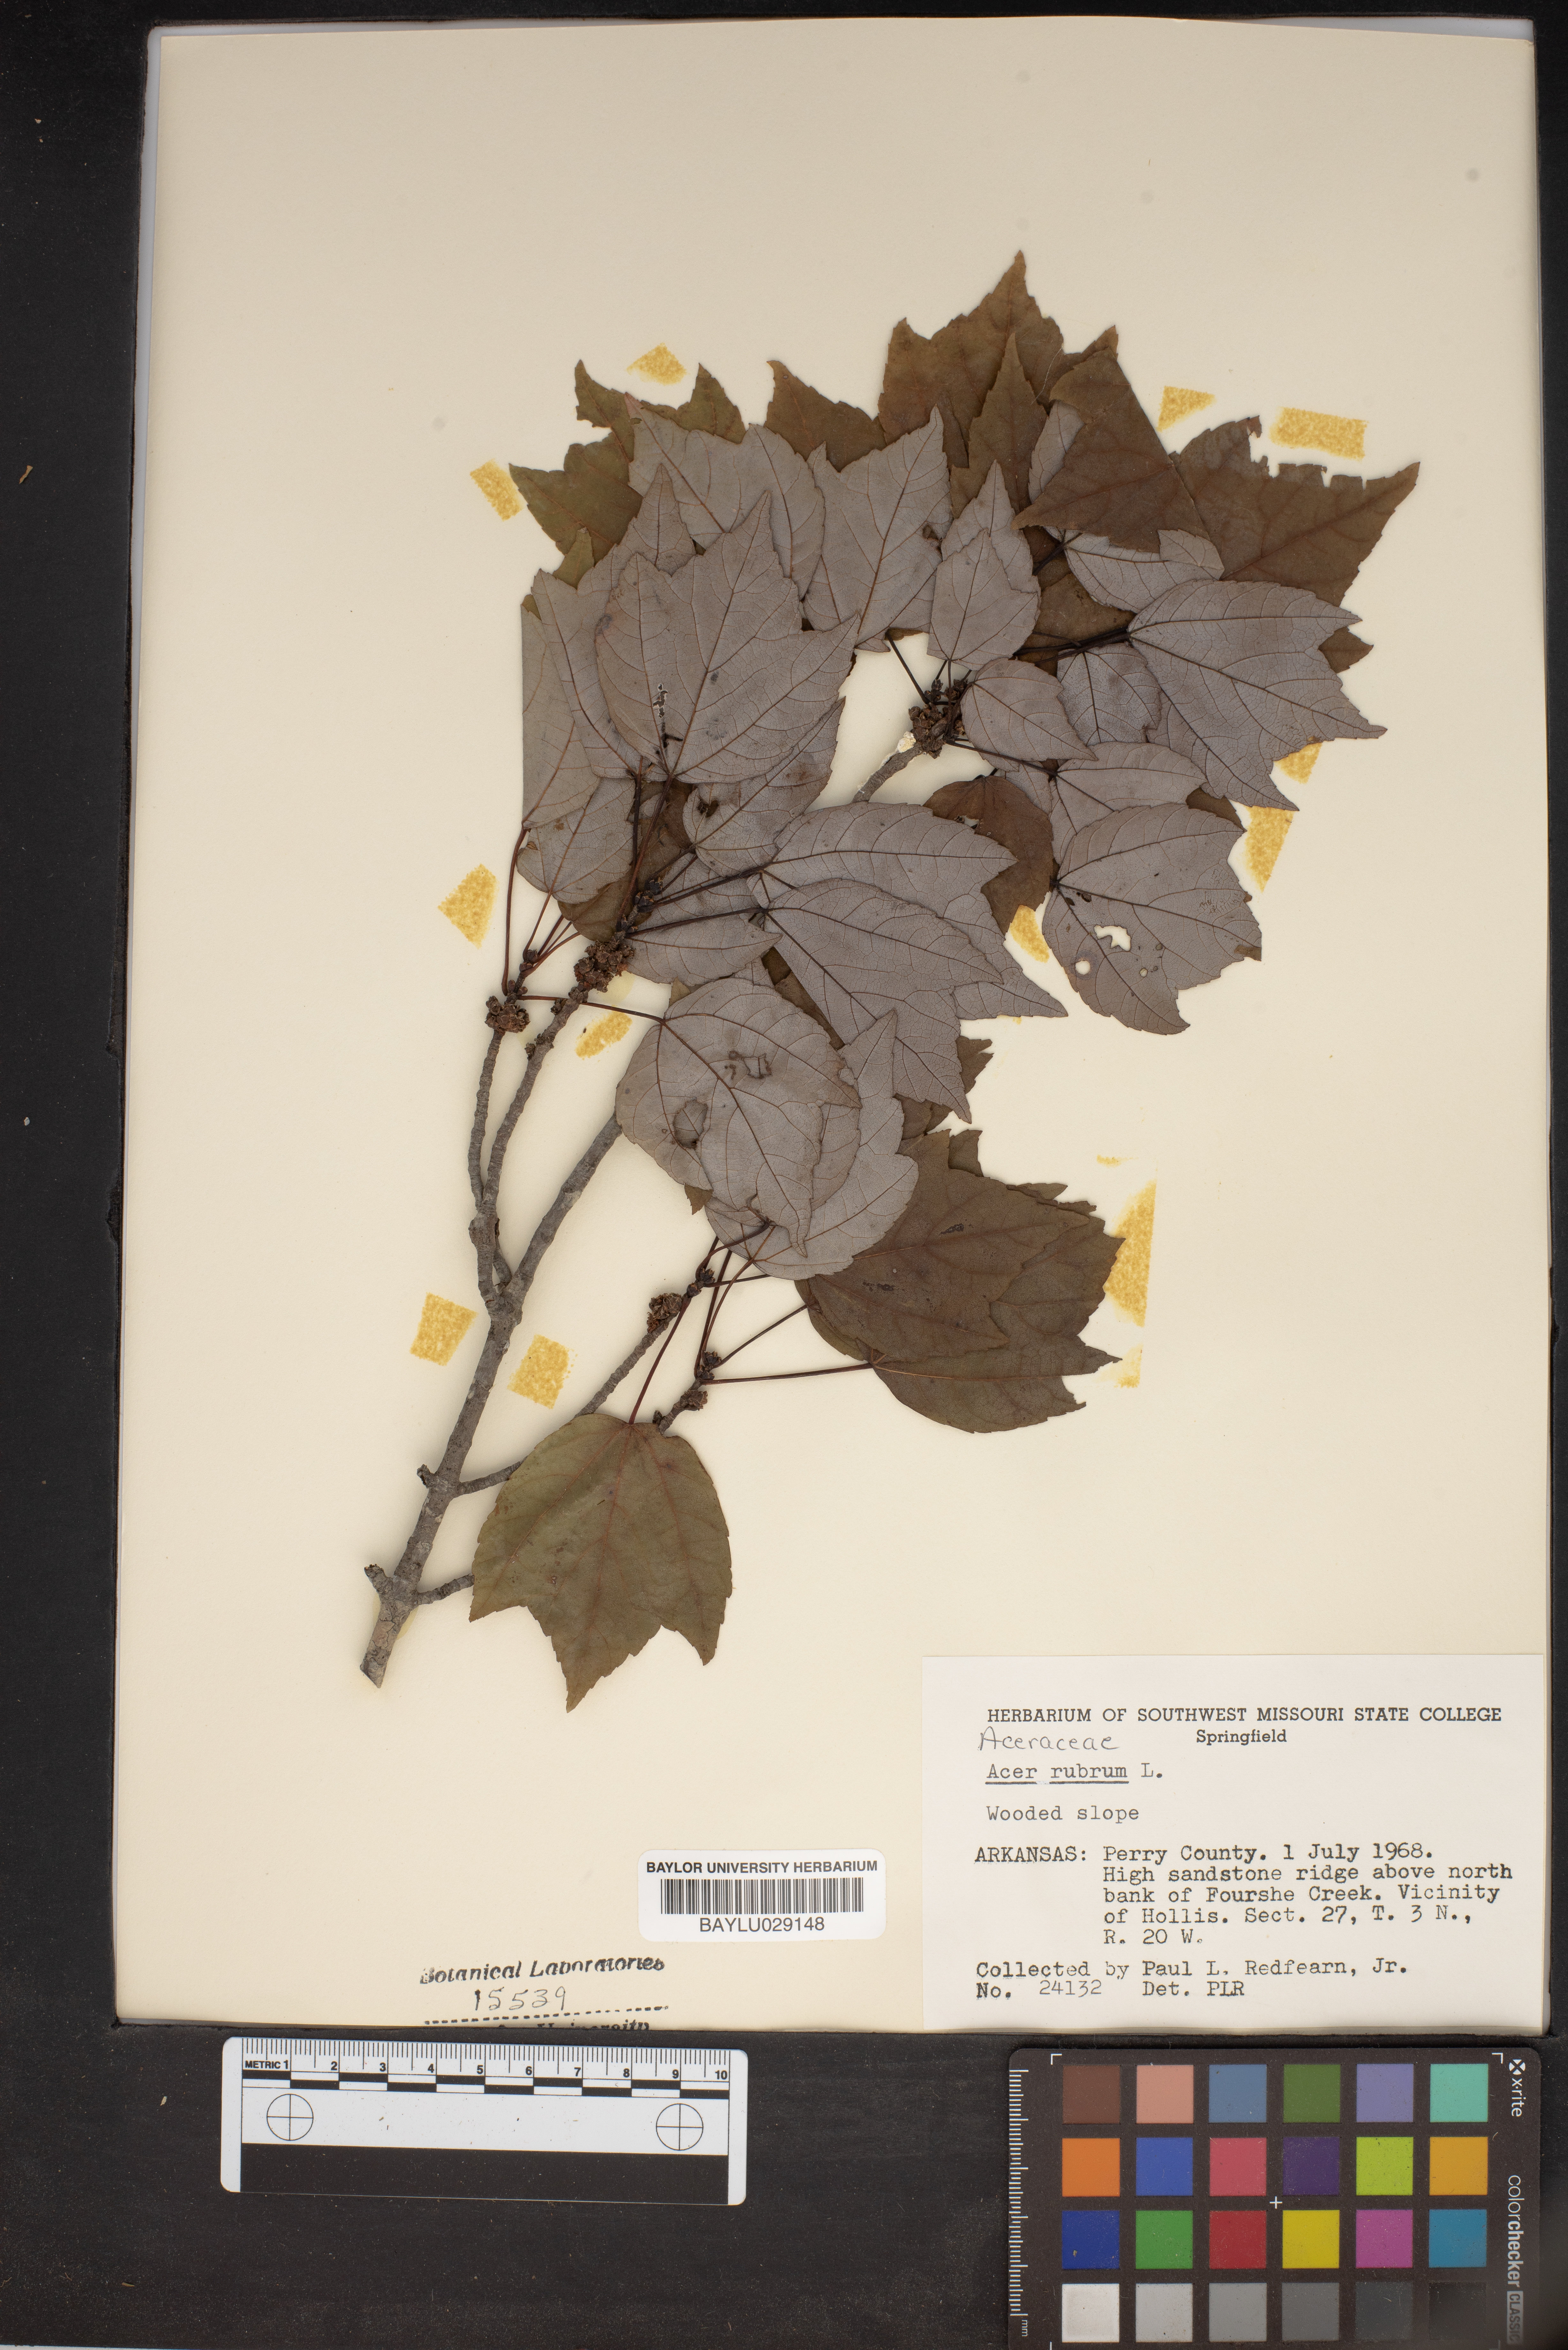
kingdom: Plantae
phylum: Tracheophyta
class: Magnoliopsida
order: Sapindales
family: Sapindaceae
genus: Acer
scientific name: Acer rubrum
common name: Red maple
